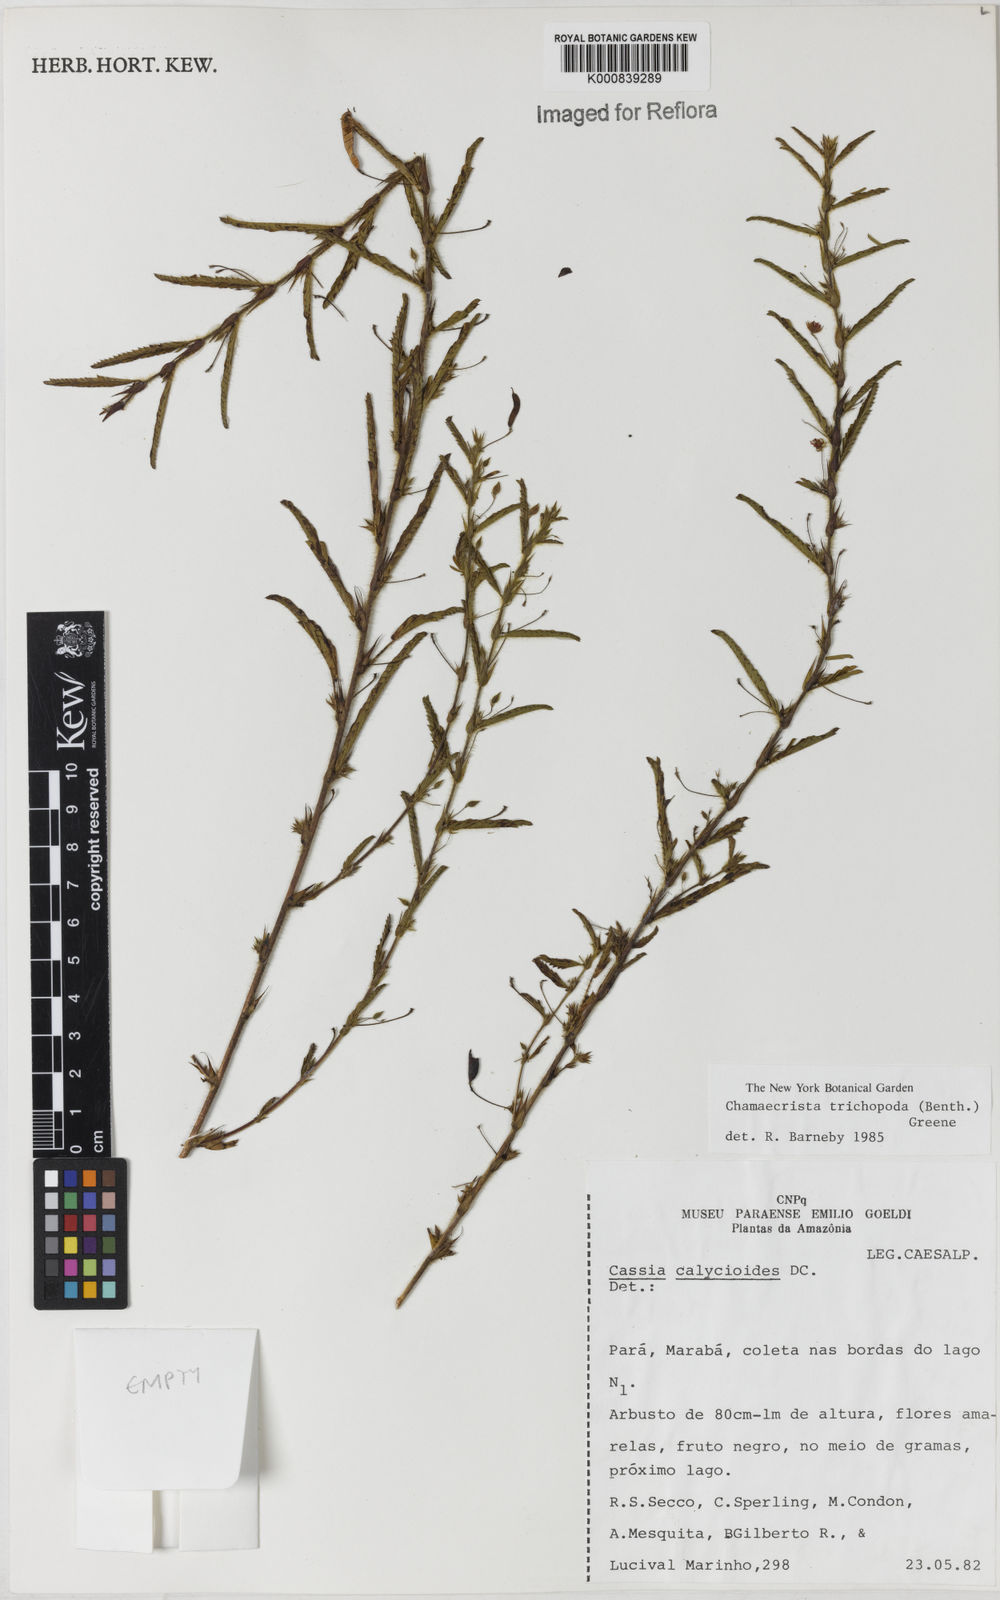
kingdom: Plantae
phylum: Tracheophyta
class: Magnoliopsida
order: Fabales
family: Fabaceae
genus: Chamaecrista
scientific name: Chamaecrista trichopoda
